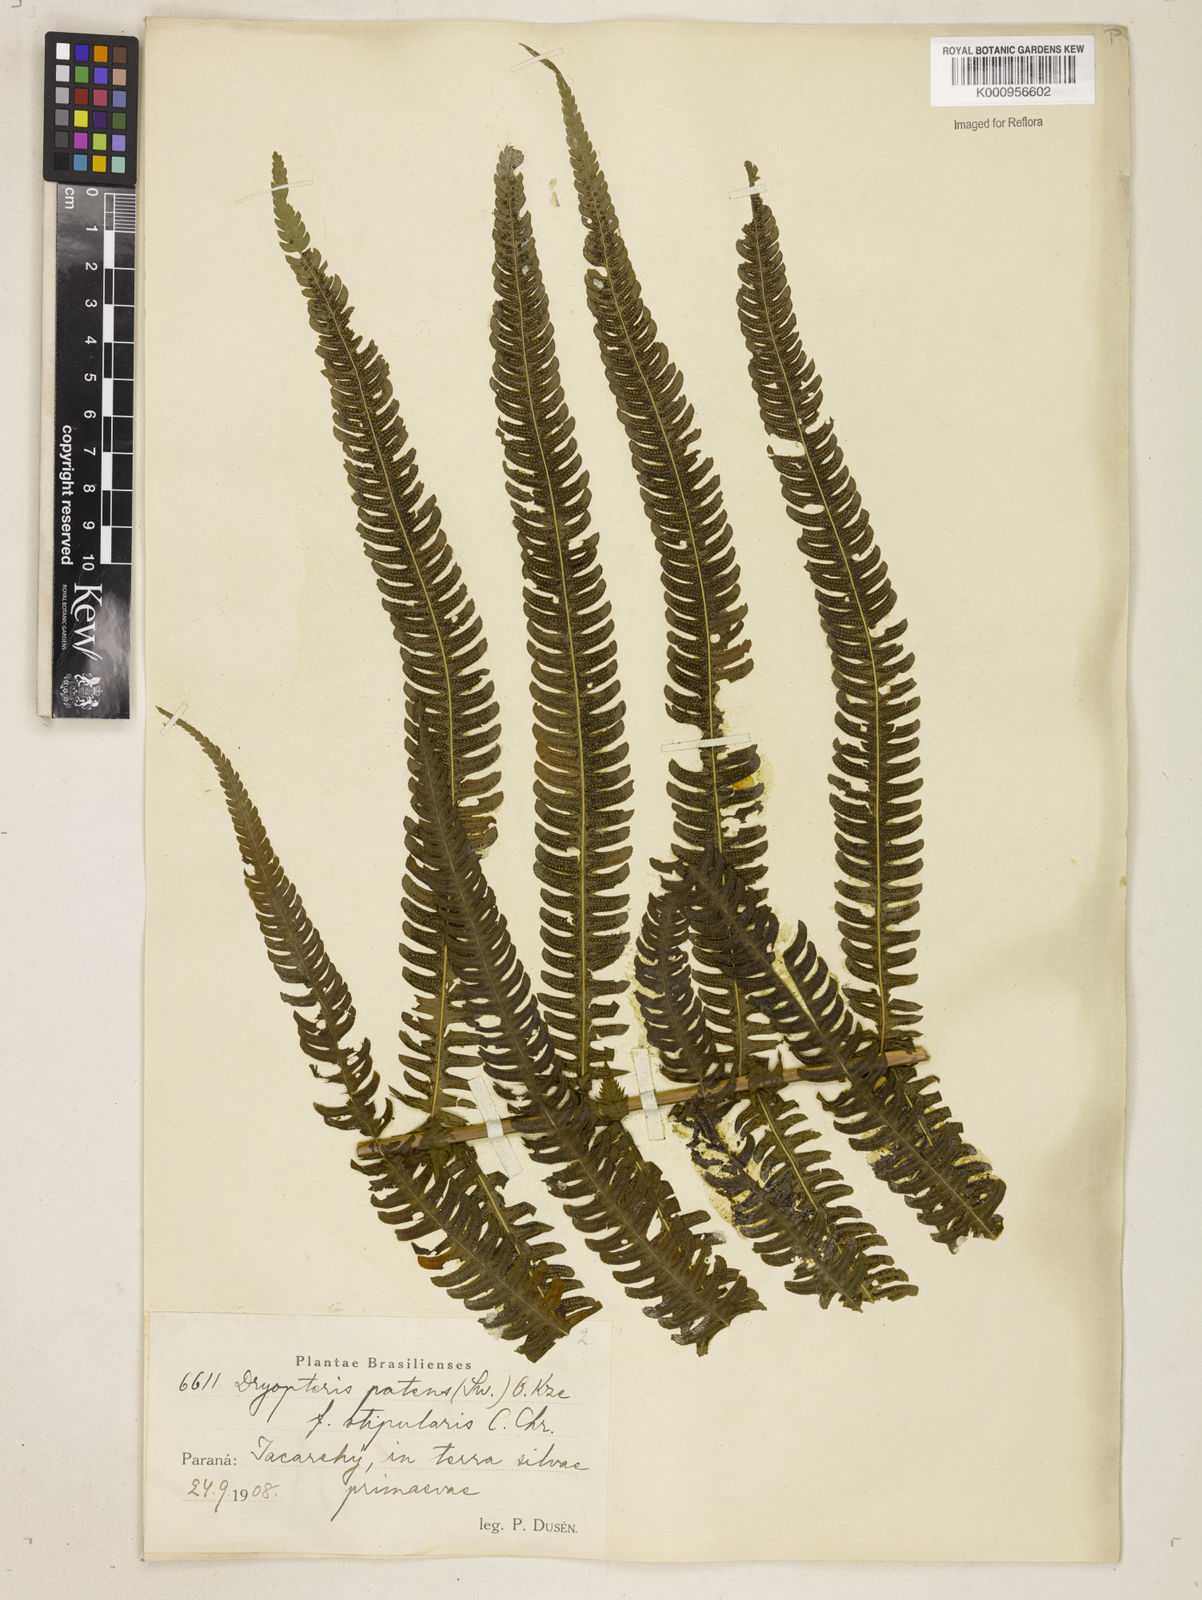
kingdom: Plantae
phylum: Tracheophyta
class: Polypodiopsida
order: Polypodiales
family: Thelypteridaceae
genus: Pelazoneuron
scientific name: Pelazoneuron patens
